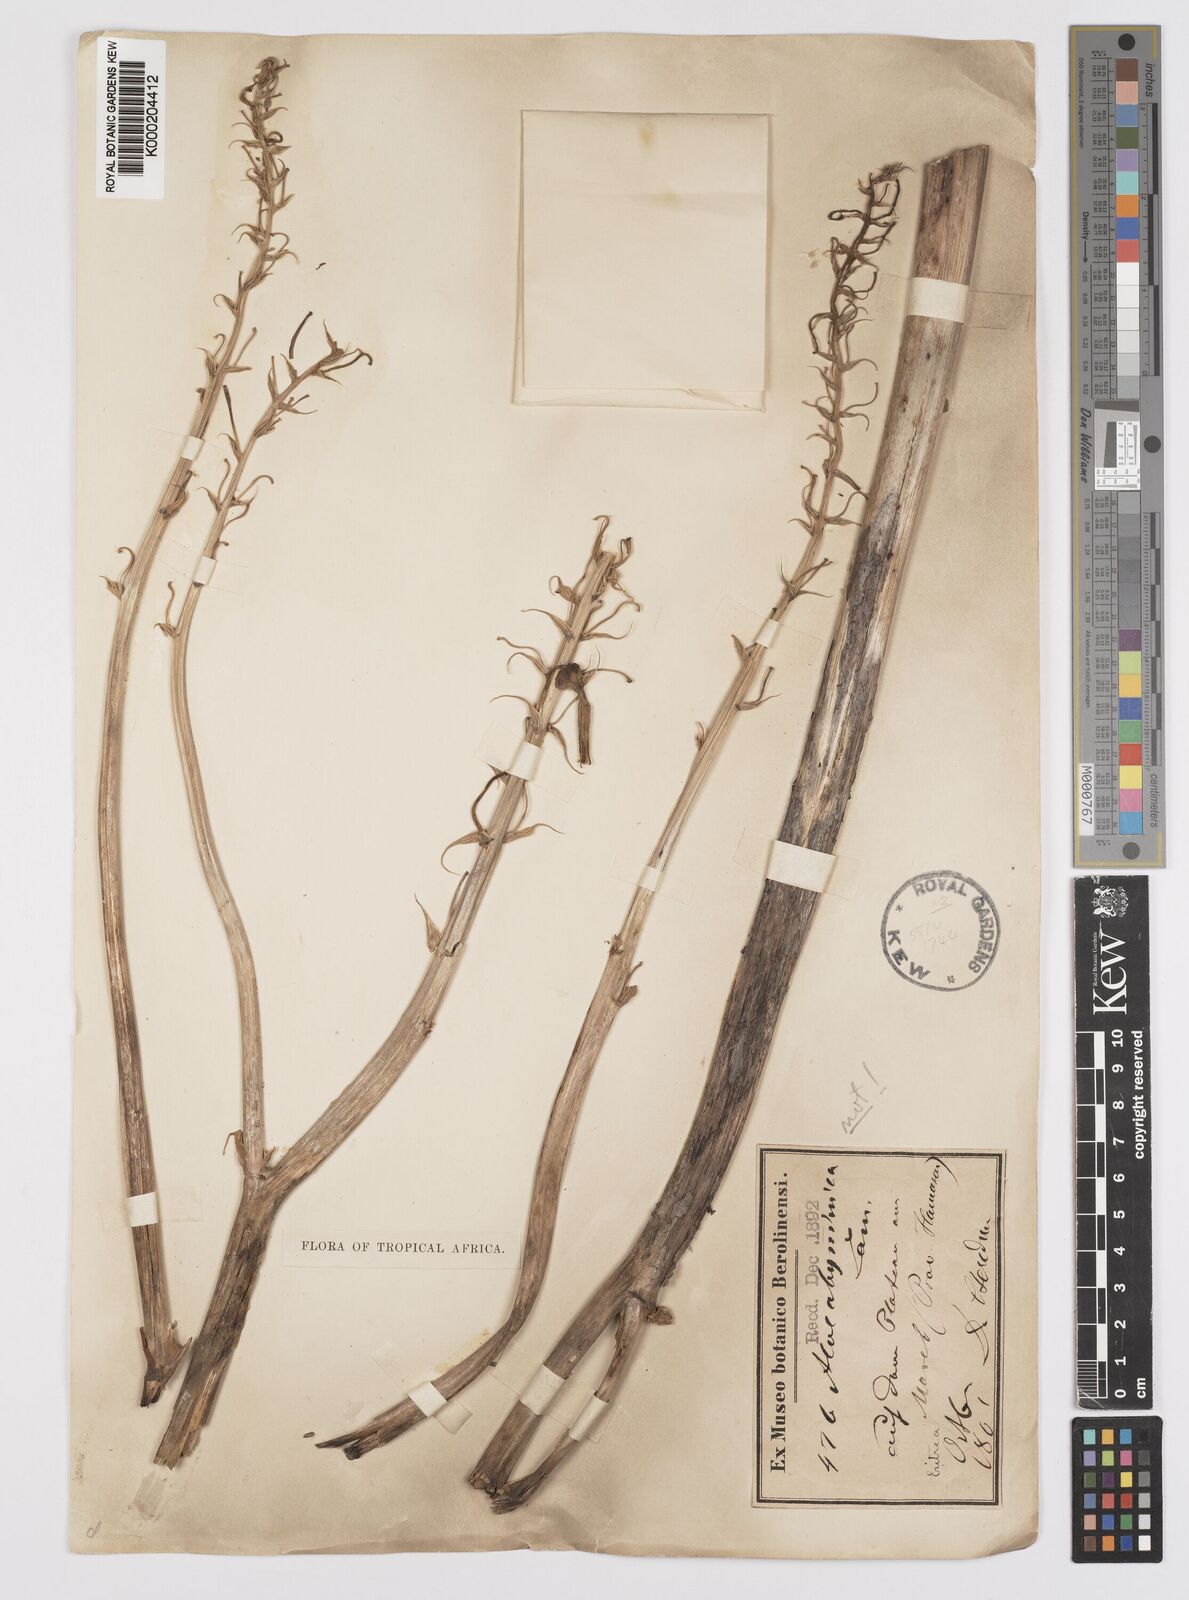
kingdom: Plantae
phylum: Tracheophyta
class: Liliopsida
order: Asparagales
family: Asphodelaceae
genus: Aloe
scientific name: Aloe macrocarpa
